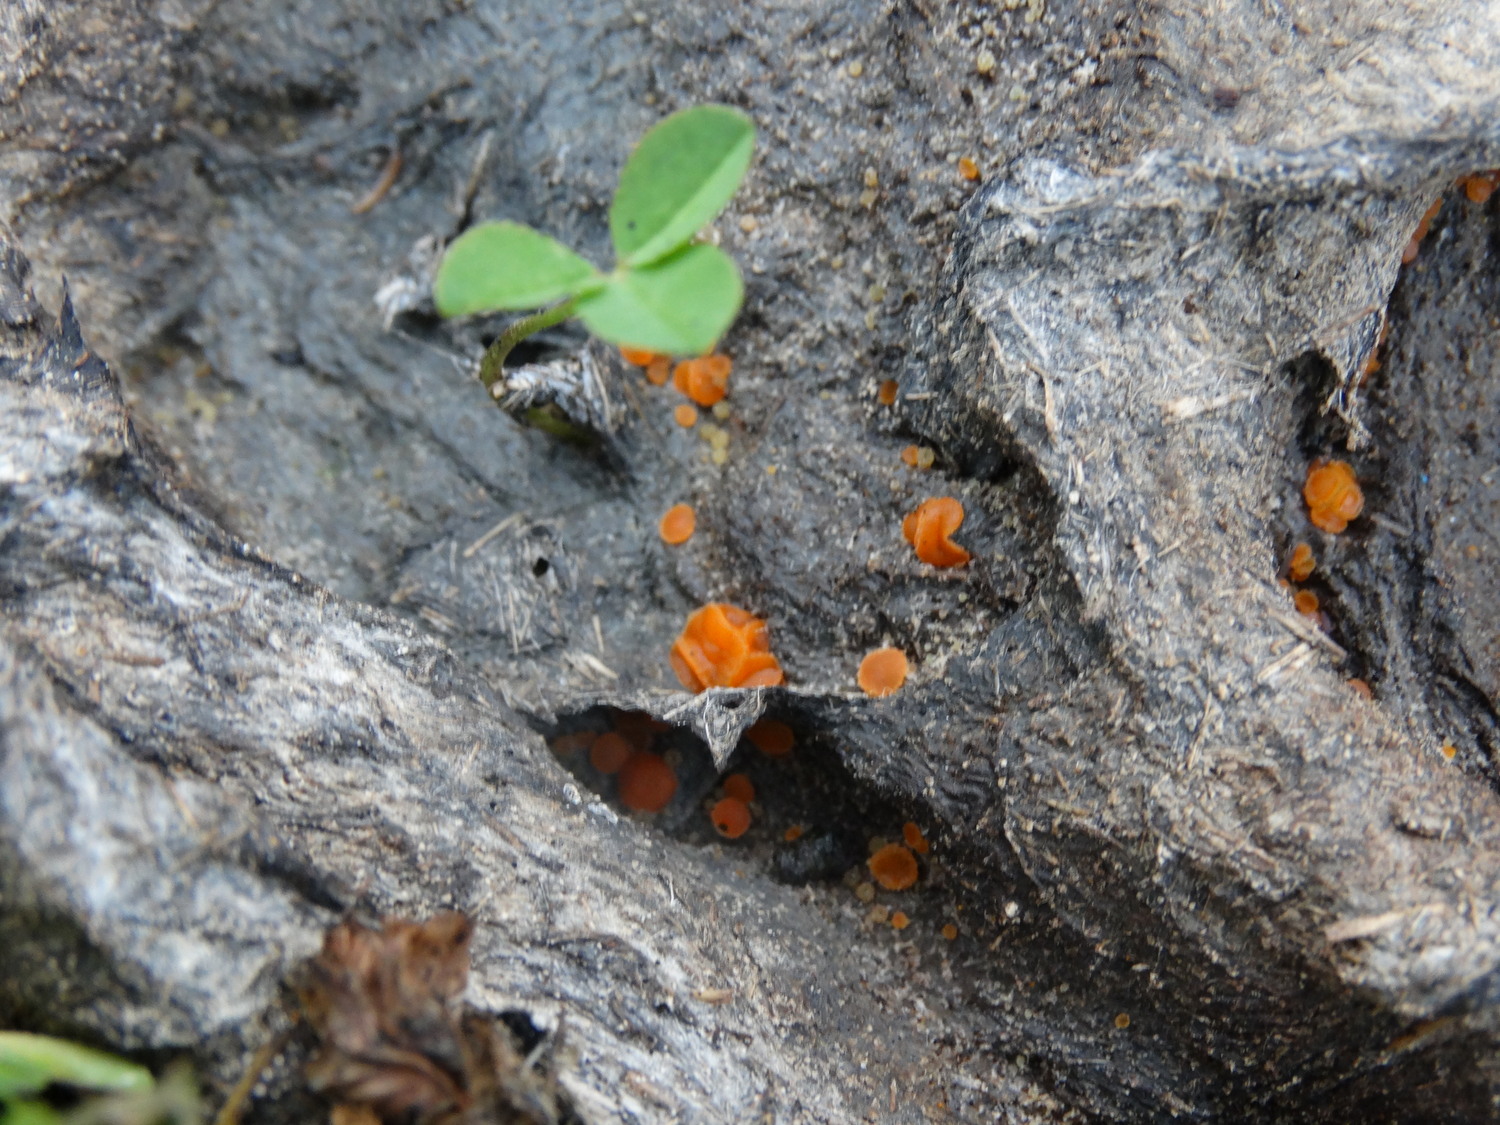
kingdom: Fungi
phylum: Ascomycota
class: Pezizomycetes
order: Pezizales
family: Pyronemataceae
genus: Cheilymenia
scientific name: Cheilymenia granulata
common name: møgbæger
